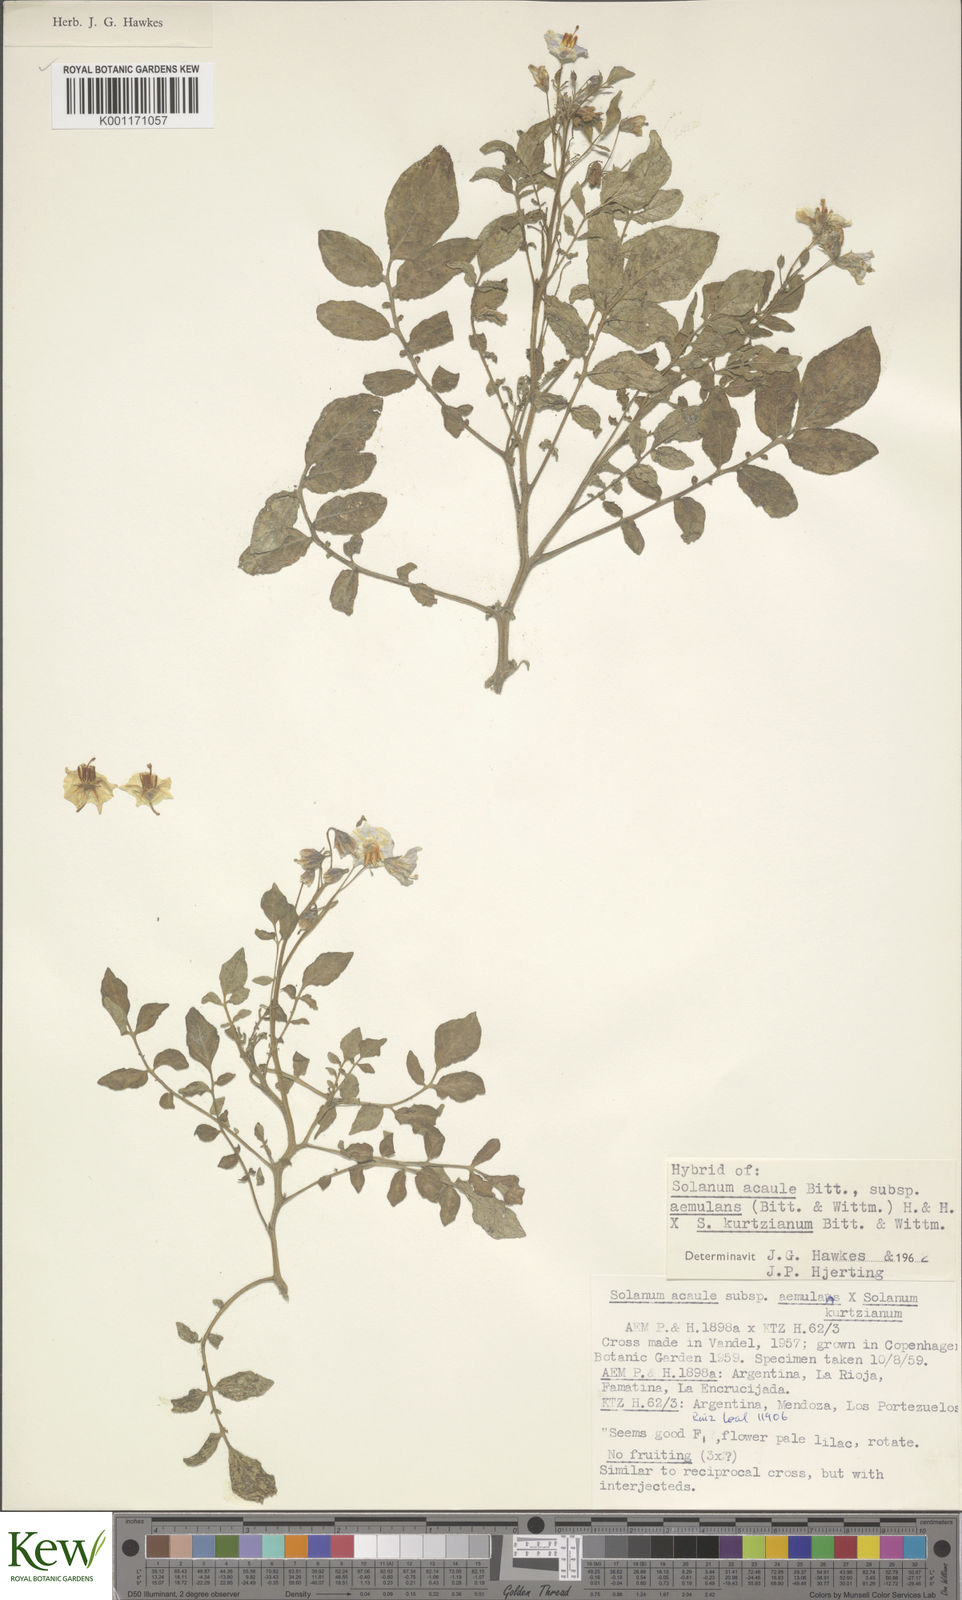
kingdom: Plantae
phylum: Tracheophyta
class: Magnoliopsida
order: Solanales
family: Solanaceae
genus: Solanum
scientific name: Solanum aemulans
